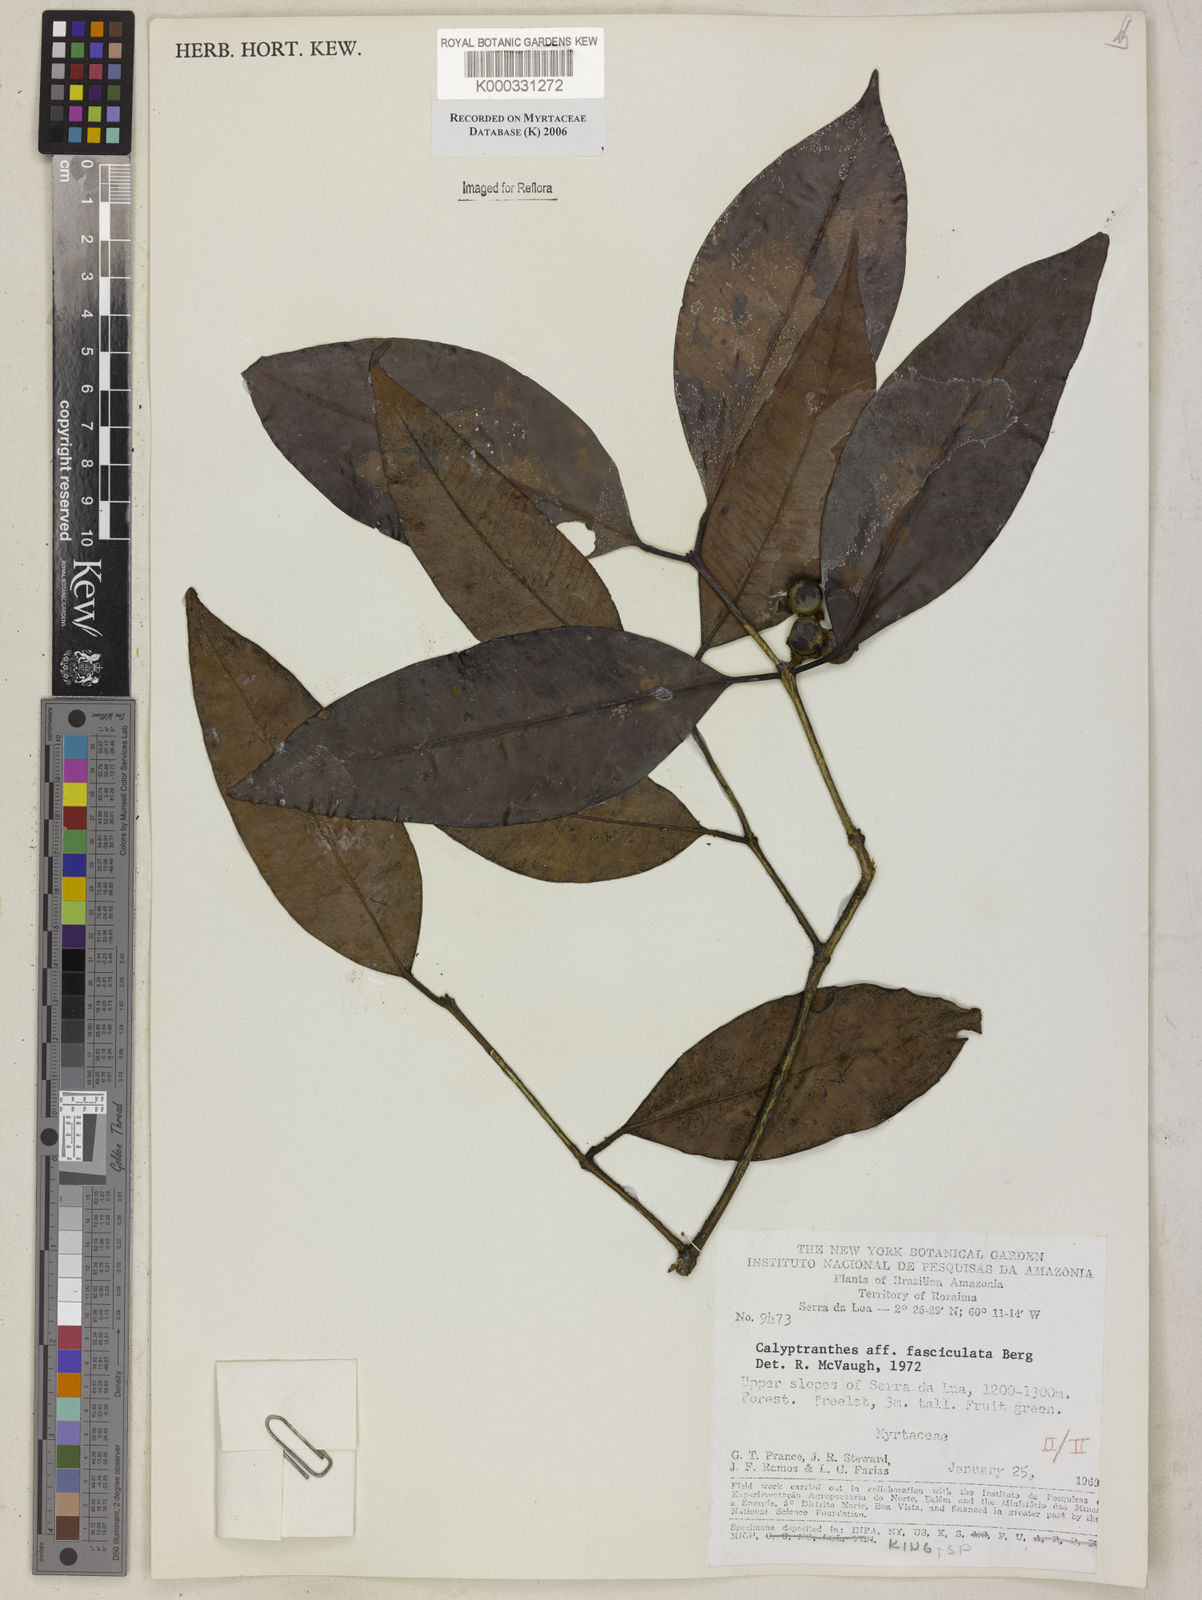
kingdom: Plantae
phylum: Tracheophyta
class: Magnoliopsida
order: Myrtales
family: Myrtaceae
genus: Myrcia
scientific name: Myrcia fasciculata
